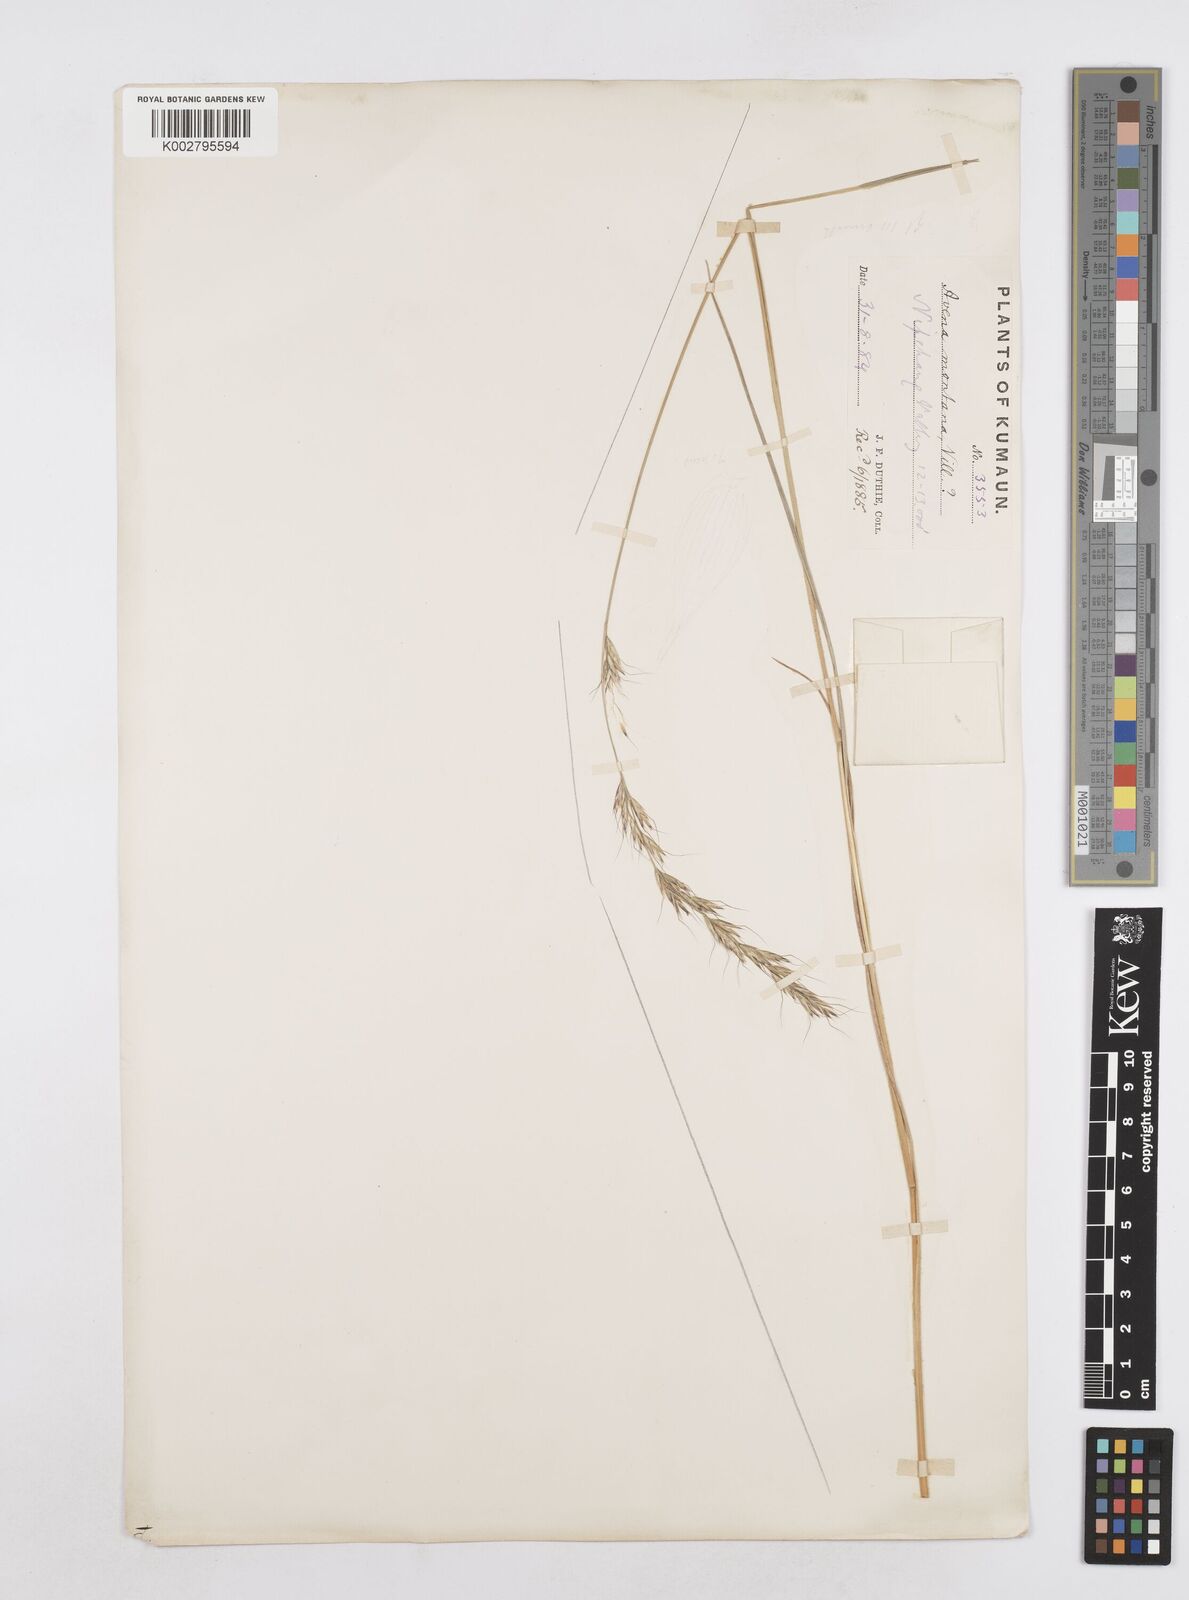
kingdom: Plantae
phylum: Tracheophyta
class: Liliopsida
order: Poales
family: Poaceae
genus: Helictotrichon
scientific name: Helictotrichon
